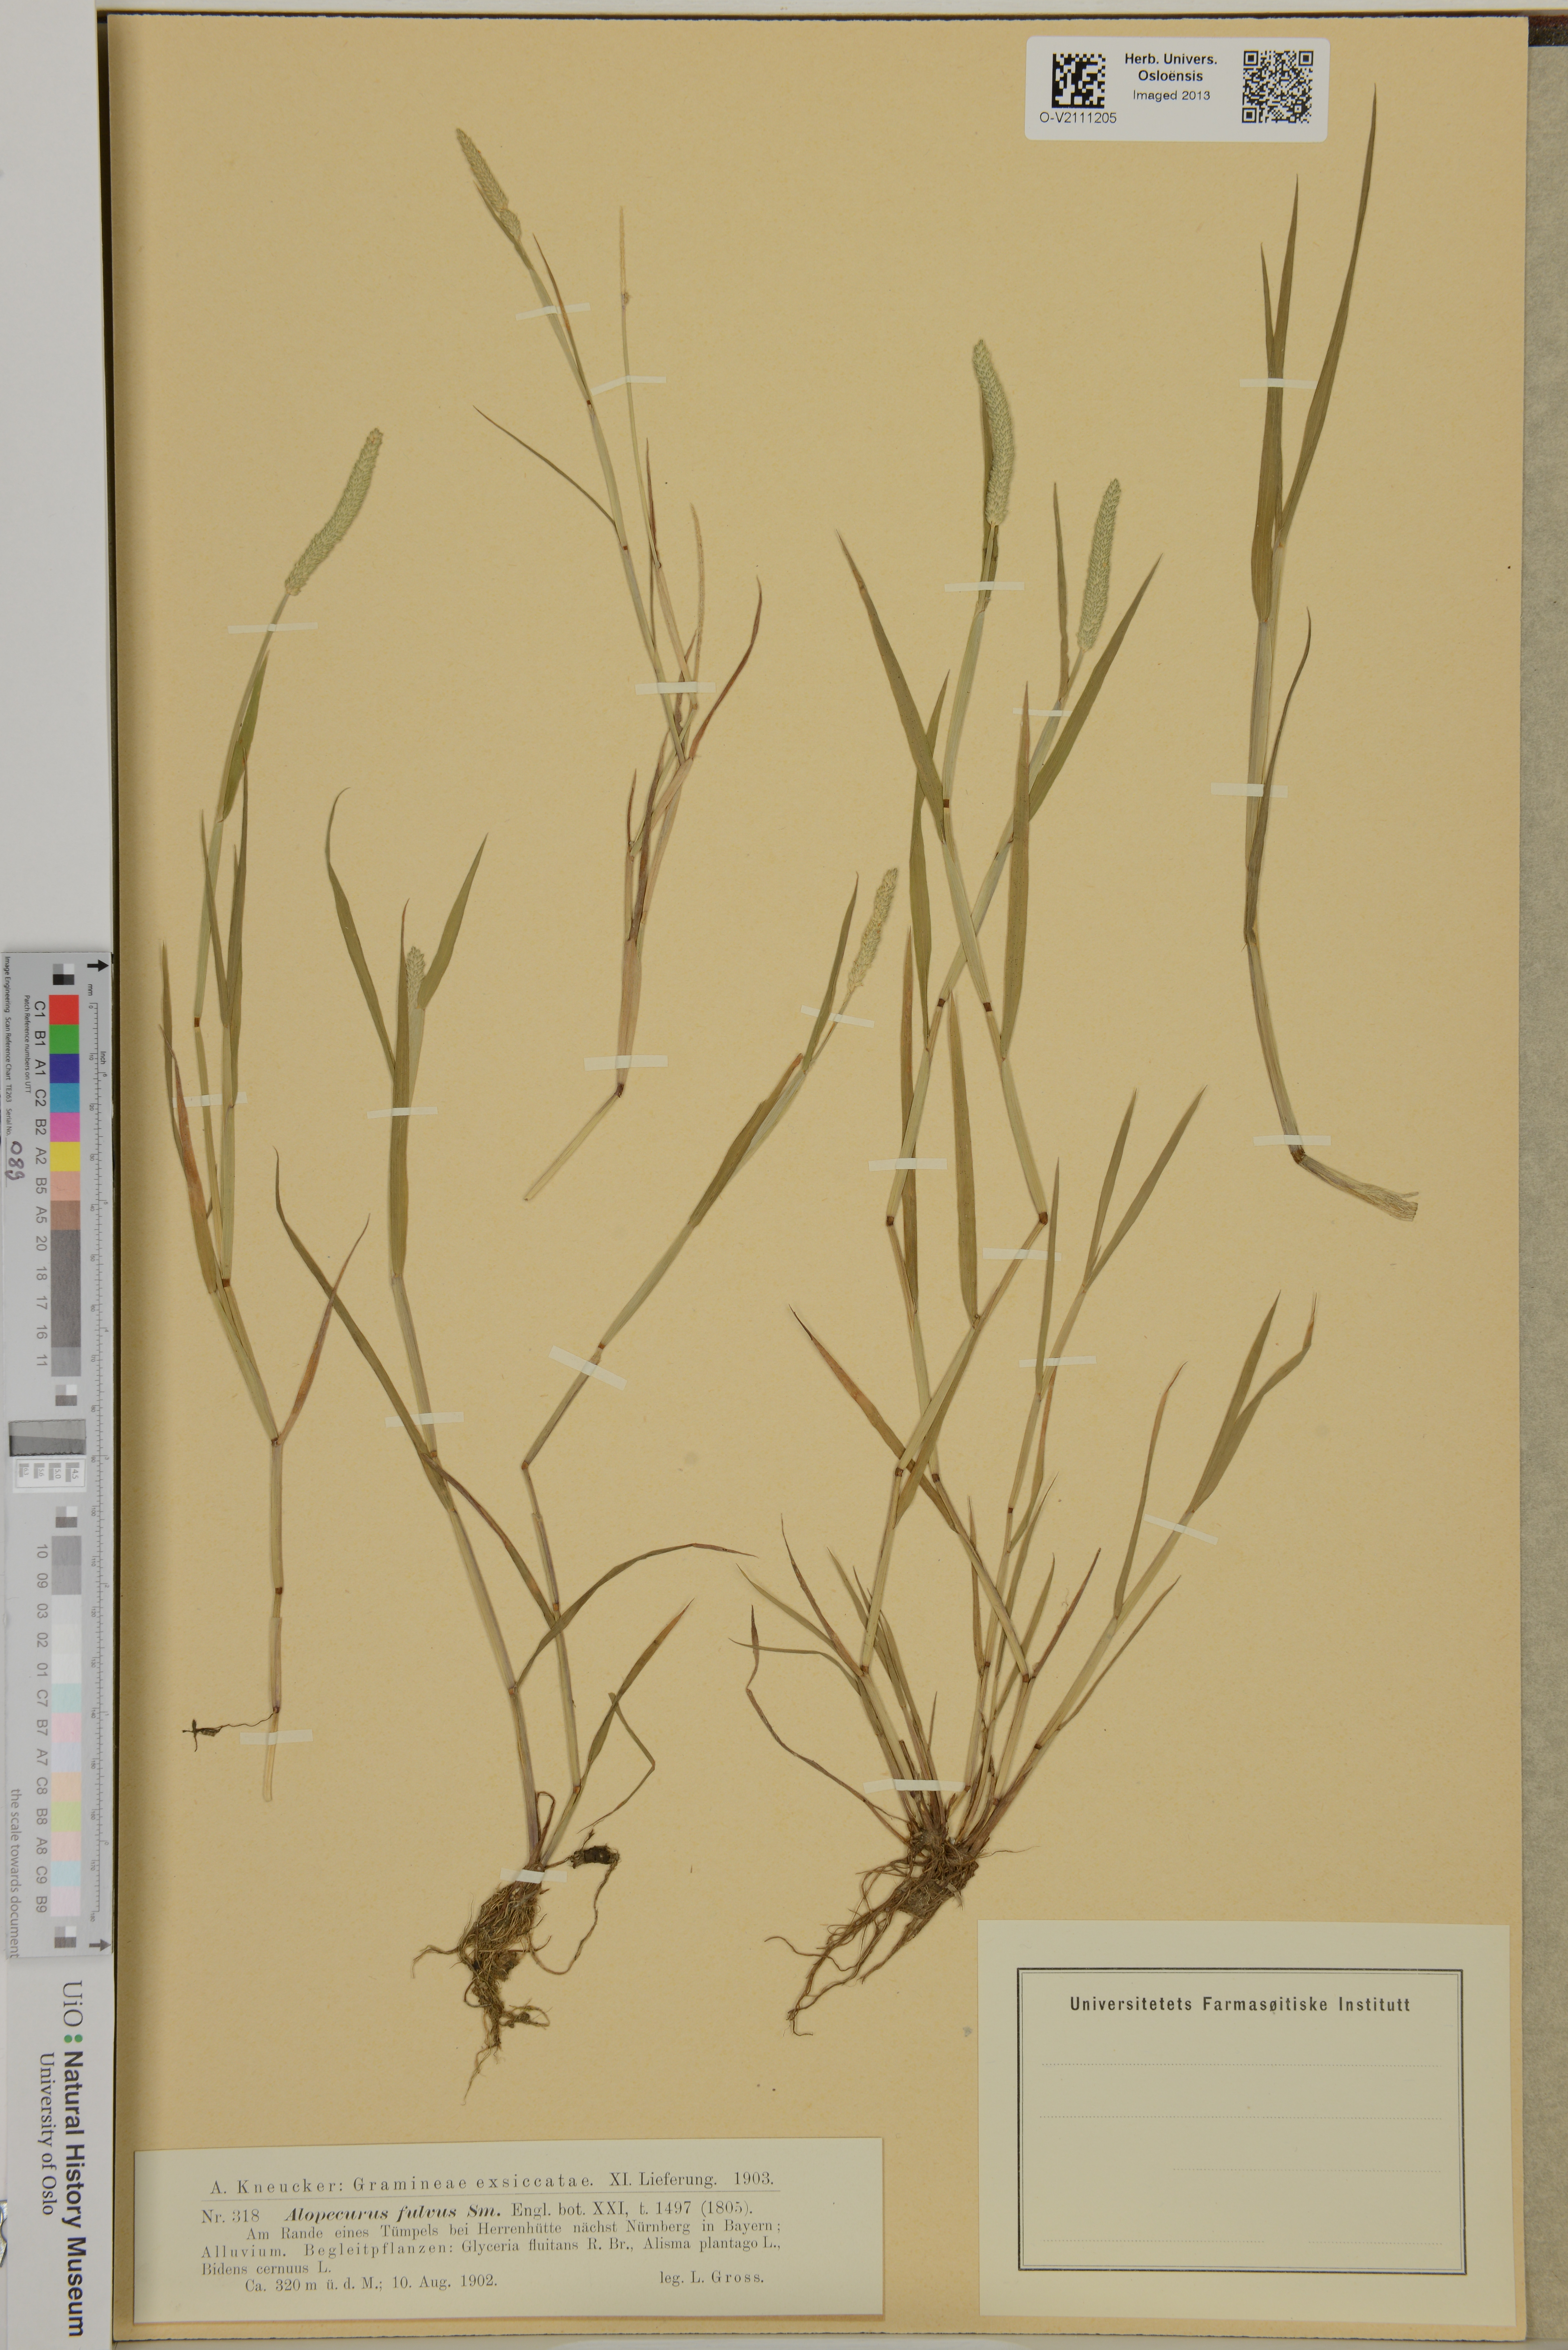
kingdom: Plantae
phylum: Tracheophyta
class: Liliopsida
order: Poales
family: Poaceae
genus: Alopecurus
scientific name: Alopecurus aequalis
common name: Orange foxtail
